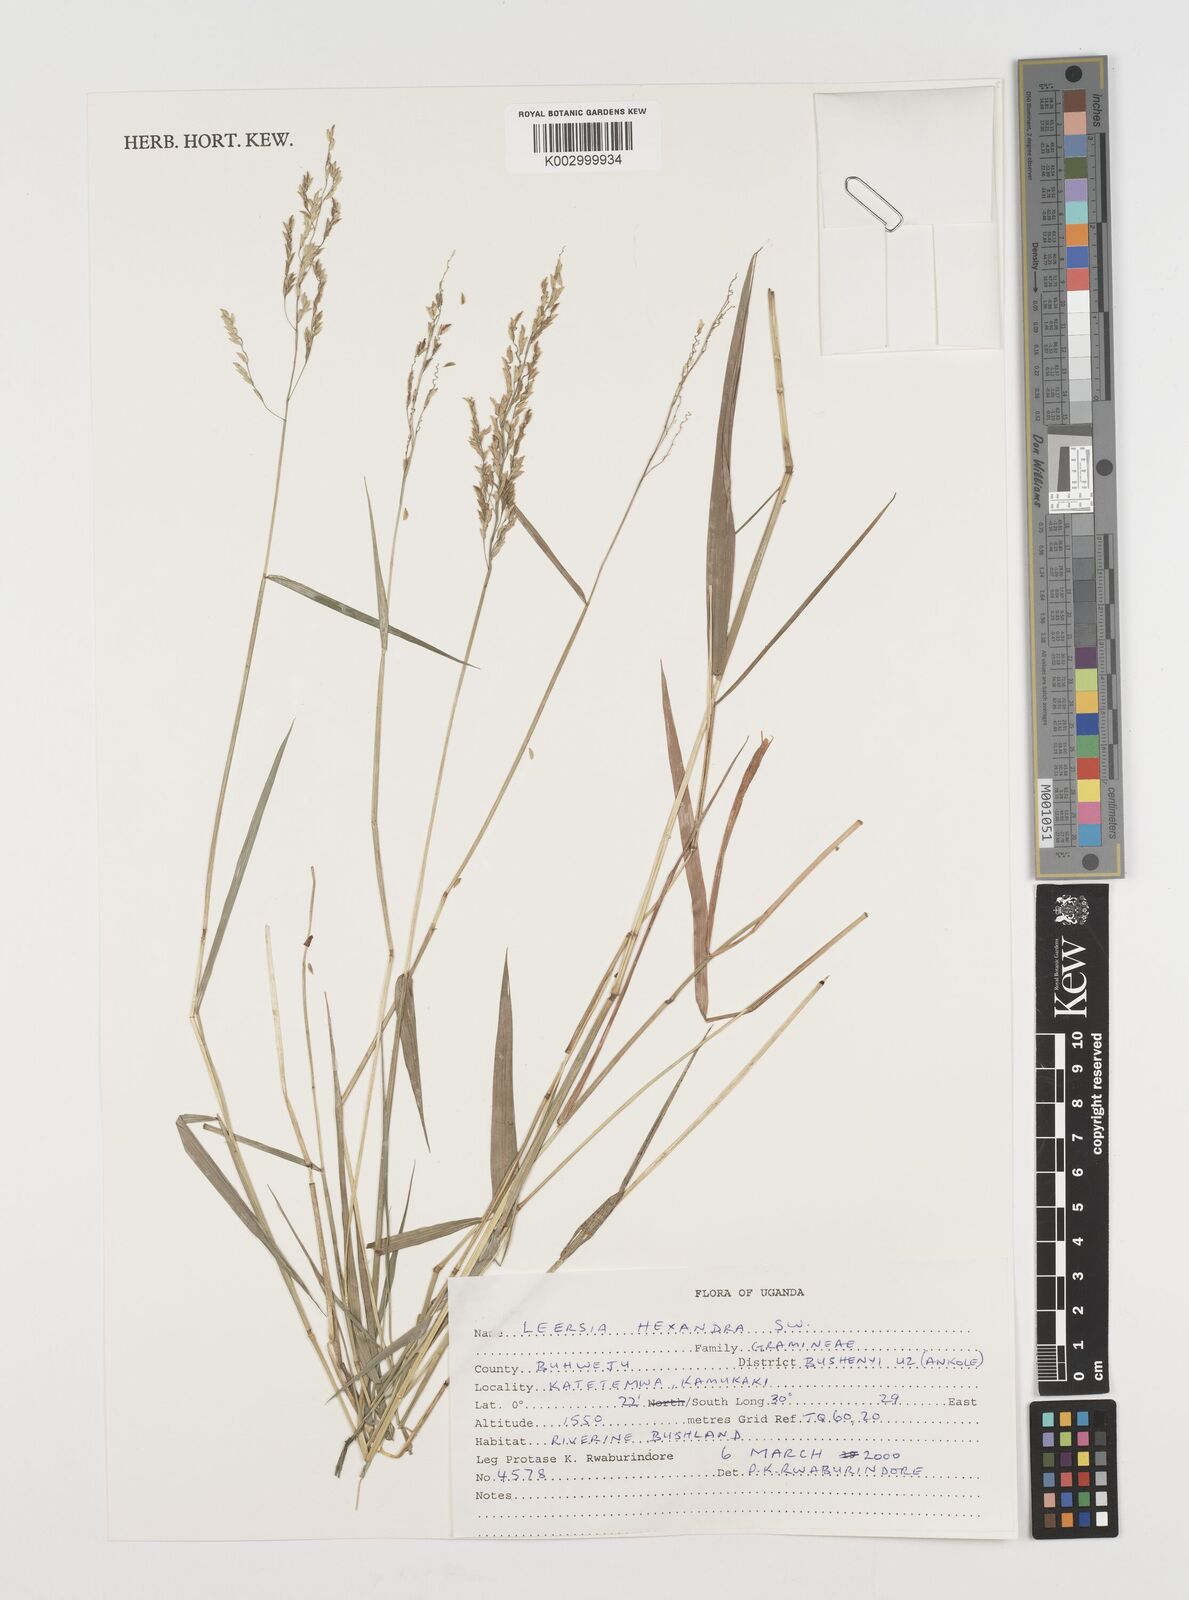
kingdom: Plantae
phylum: Tracheophyta
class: Liliopsida
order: Poales
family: Poaceae
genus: Leersia
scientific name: Leersia hexandra
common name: Southern cut grass
